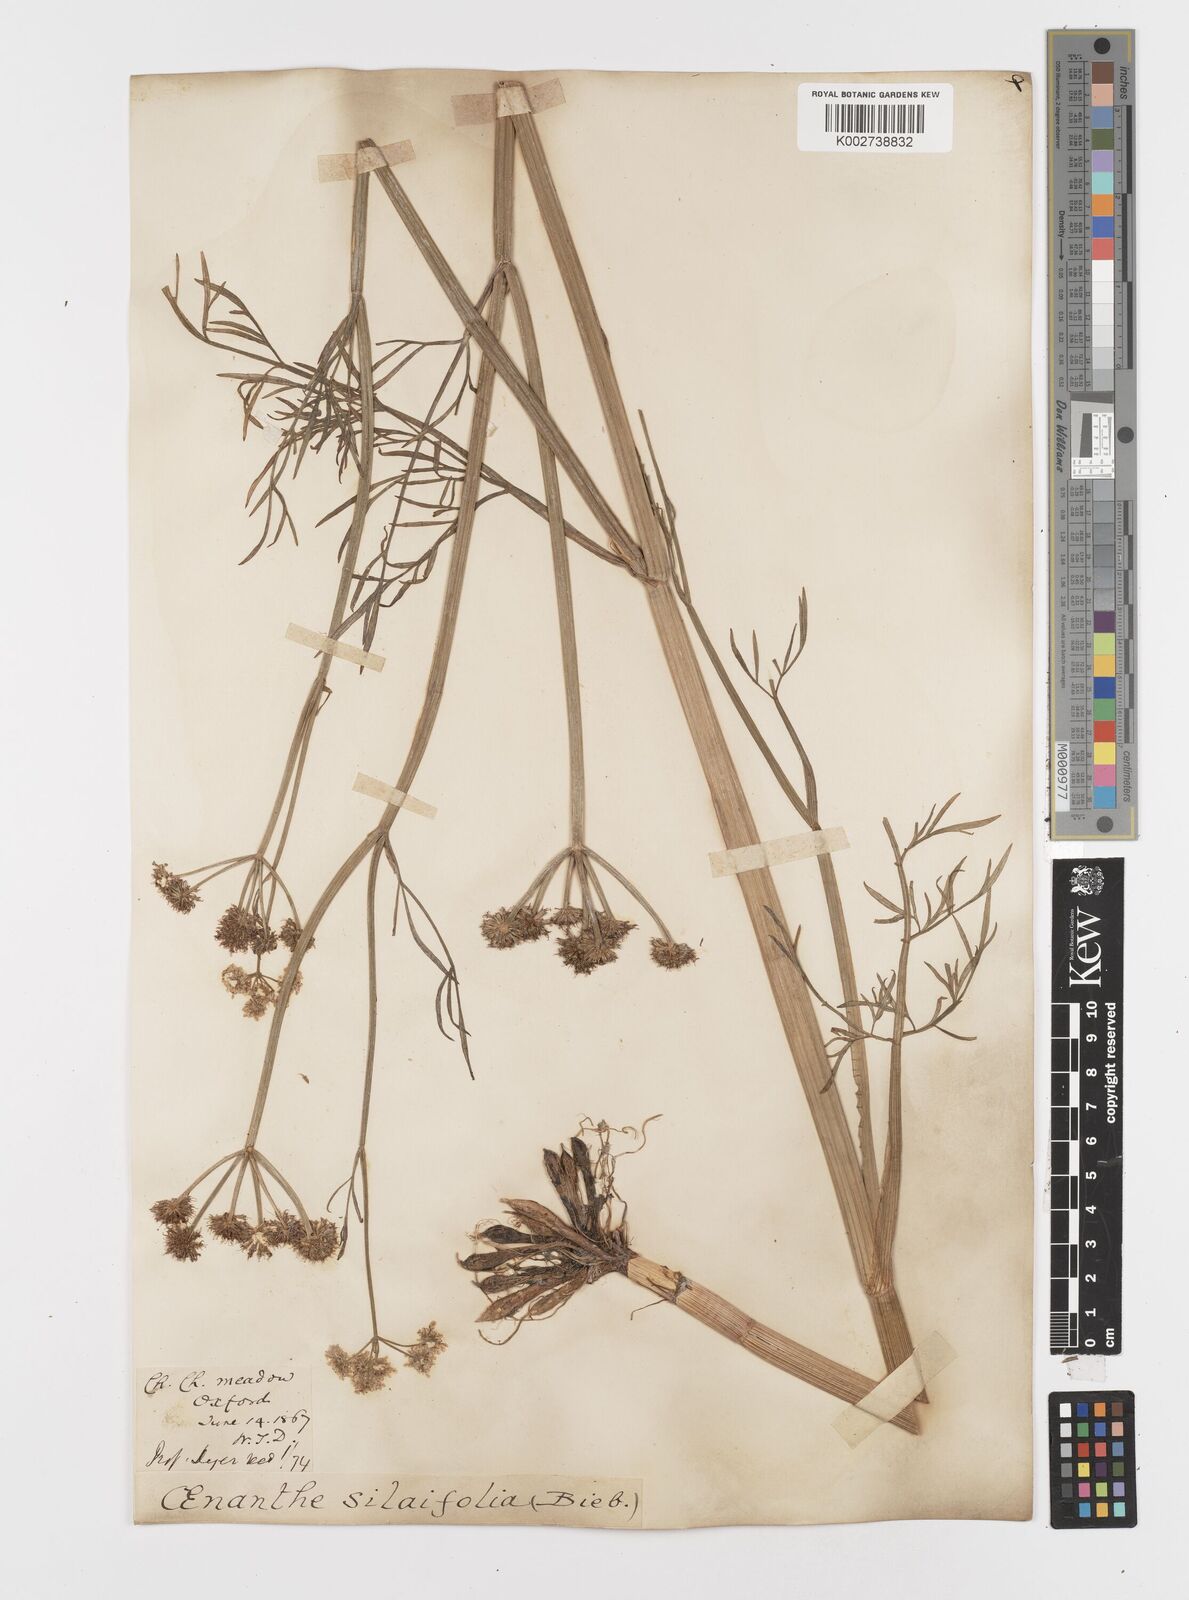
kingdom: Plantae
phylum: Tracheophyta
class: Magnoliopsida
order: Apiales
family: Apiaceae
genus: Oenanthe
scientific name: Oenanthe silaifolia
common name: Narrow-leaved water-dropwort
